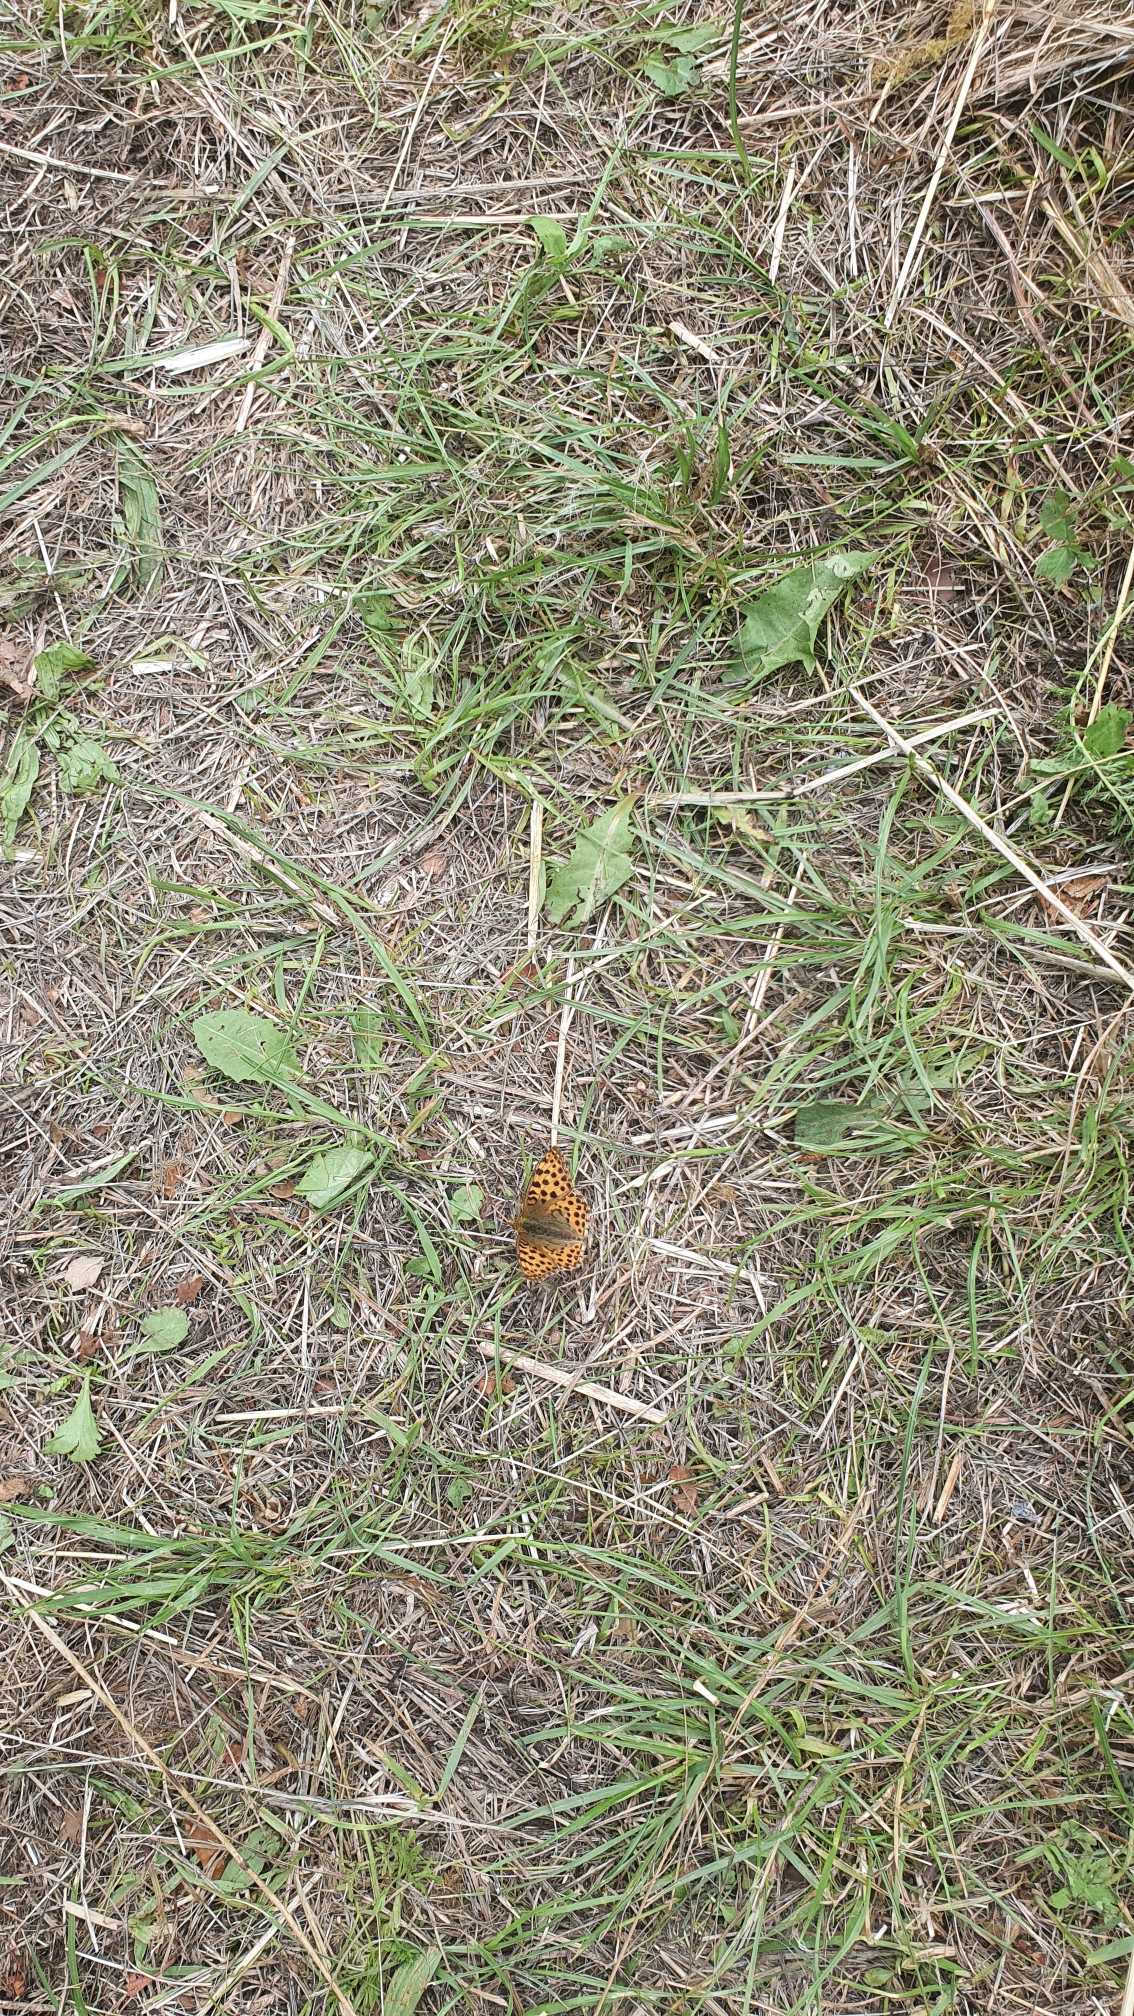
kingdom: Animalia
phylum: Arthropoda
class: Insecta
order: Lepidoptera
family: Nymphalidae
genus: Issoria
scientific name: Issoria lathonia
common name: Storplettet perlemorsommerfugl
